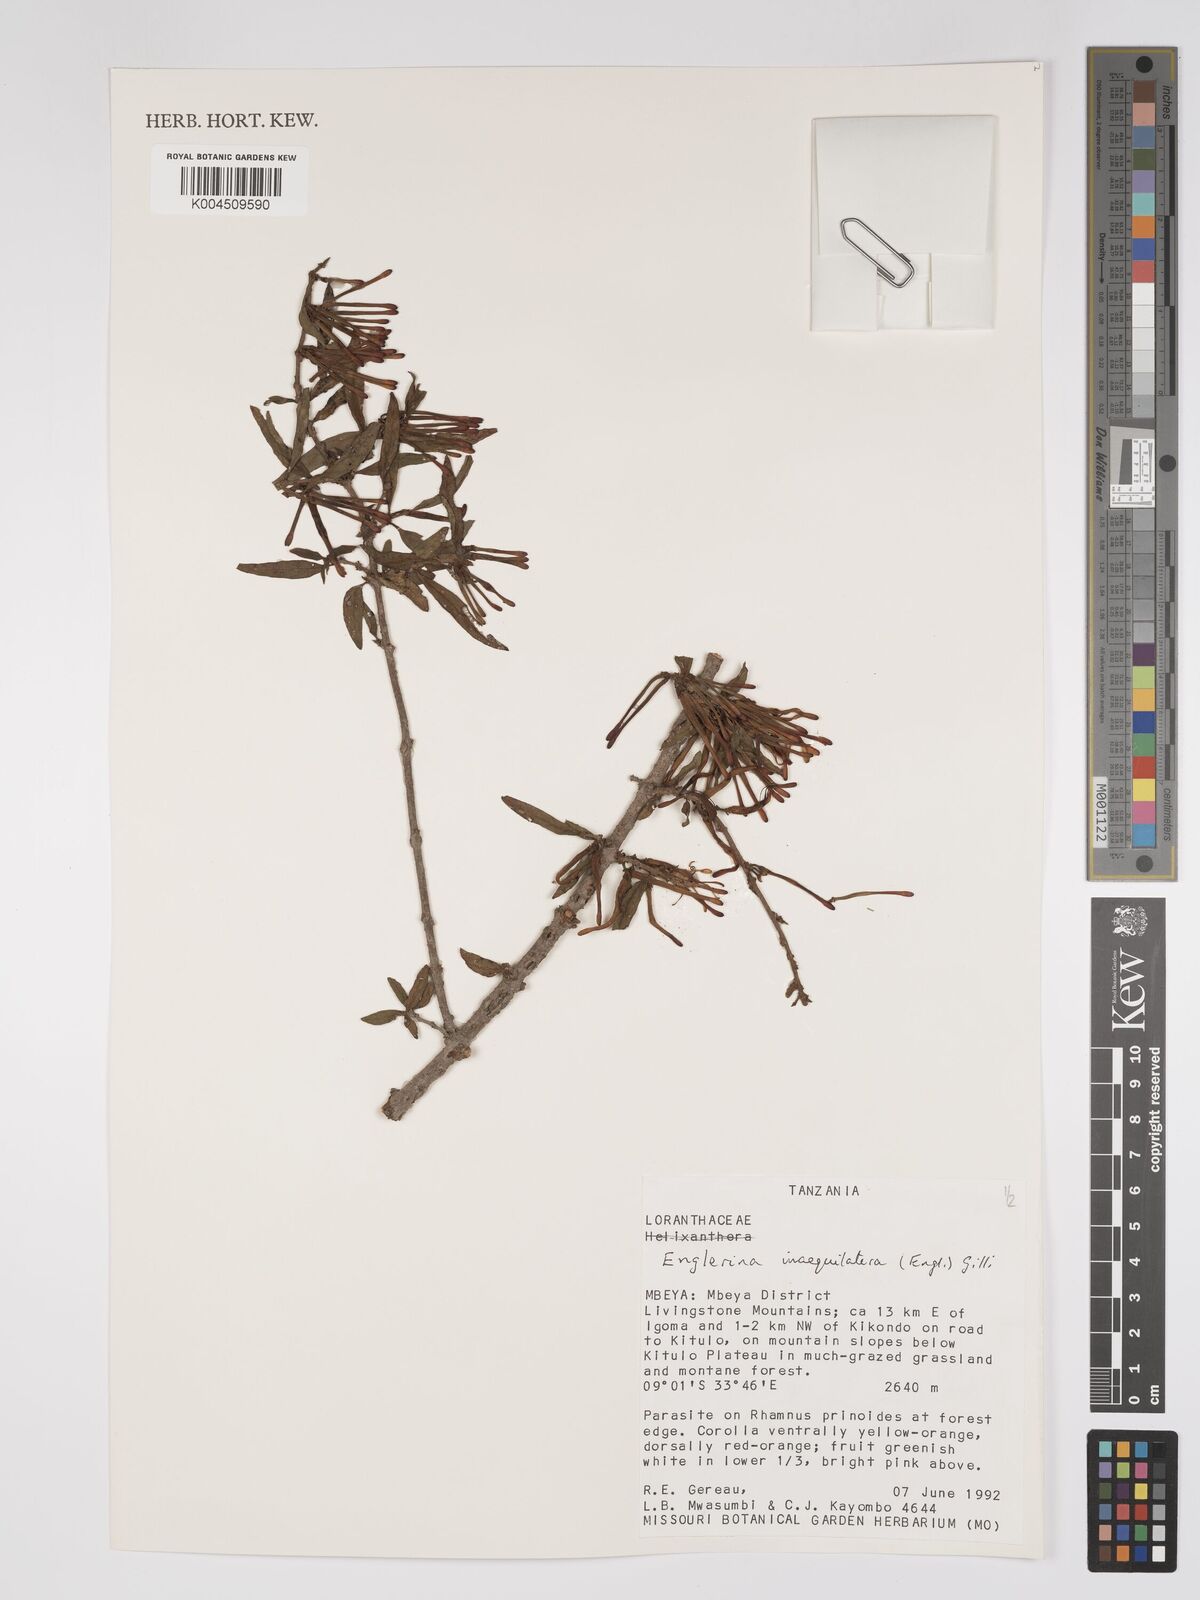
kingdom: Plantae
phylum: Tracheophyta
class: Magnoliopsida
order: Santalales
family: Loranthaceae
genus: Englerina
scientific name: Englerina inaequilatera
